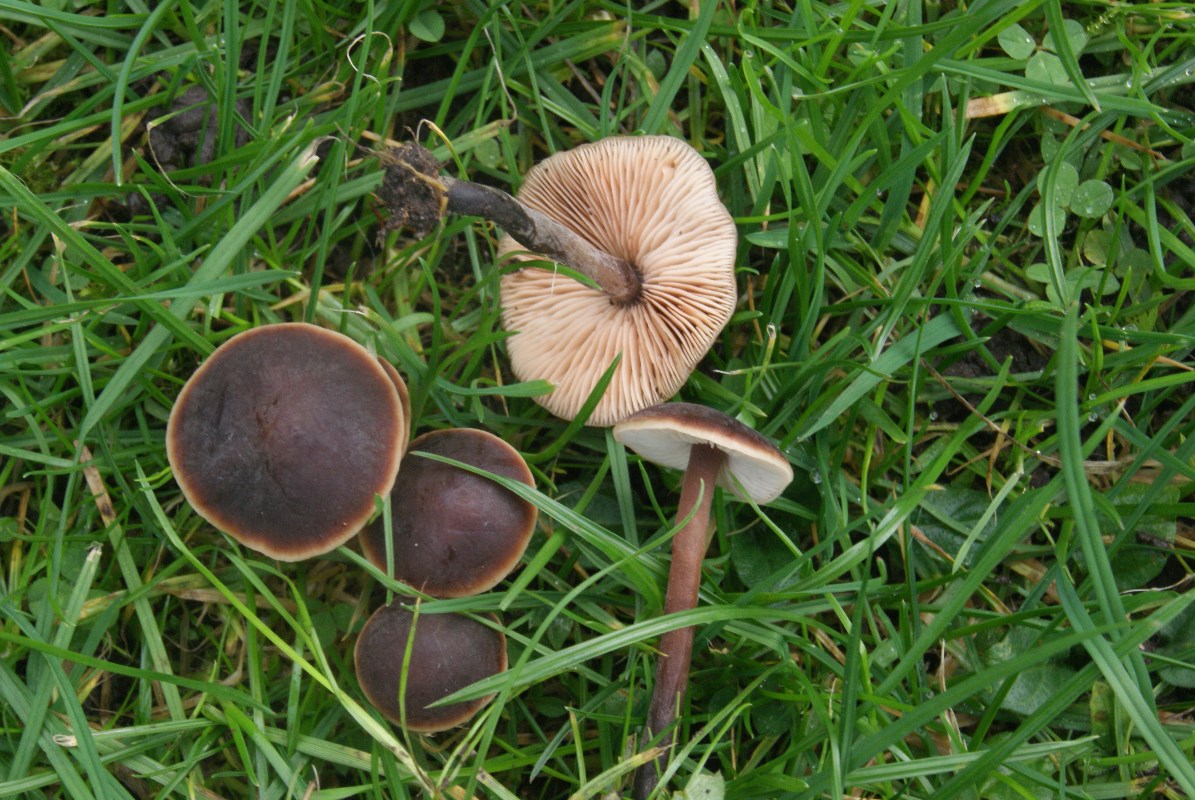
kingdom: Fungi
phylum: Basidiomycota
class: Agaricomycetes
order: Agaricales
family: Macrocystidiaceae
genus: Macrocystidia
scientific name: Macrocystidia cucumis
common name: agurkehat
